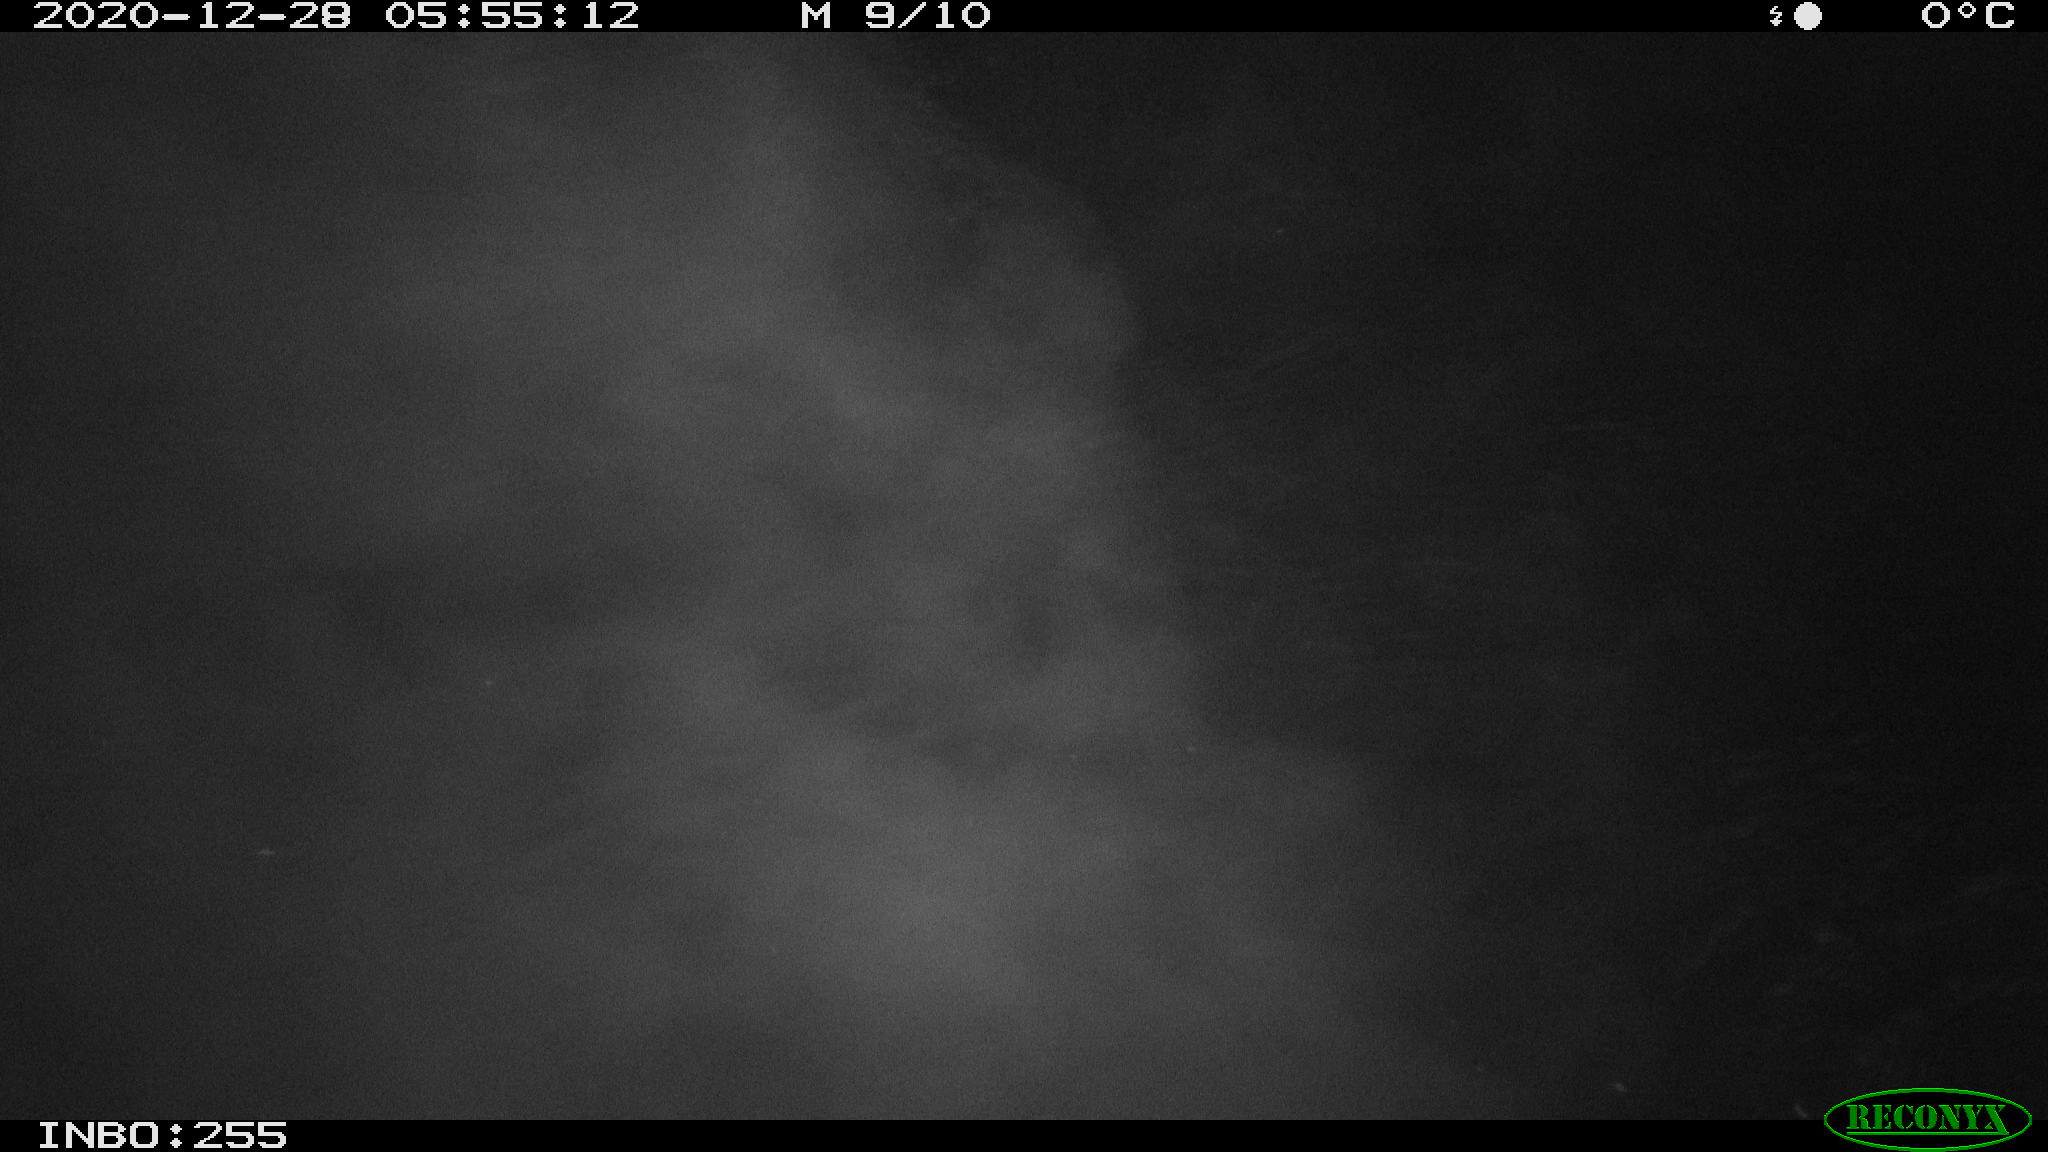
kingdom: Animalia
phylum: Chordata
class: Mammalia
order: Rodentia
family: Muridae
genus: Rattus
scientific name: Rattus norvegicus
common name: Brown rat
